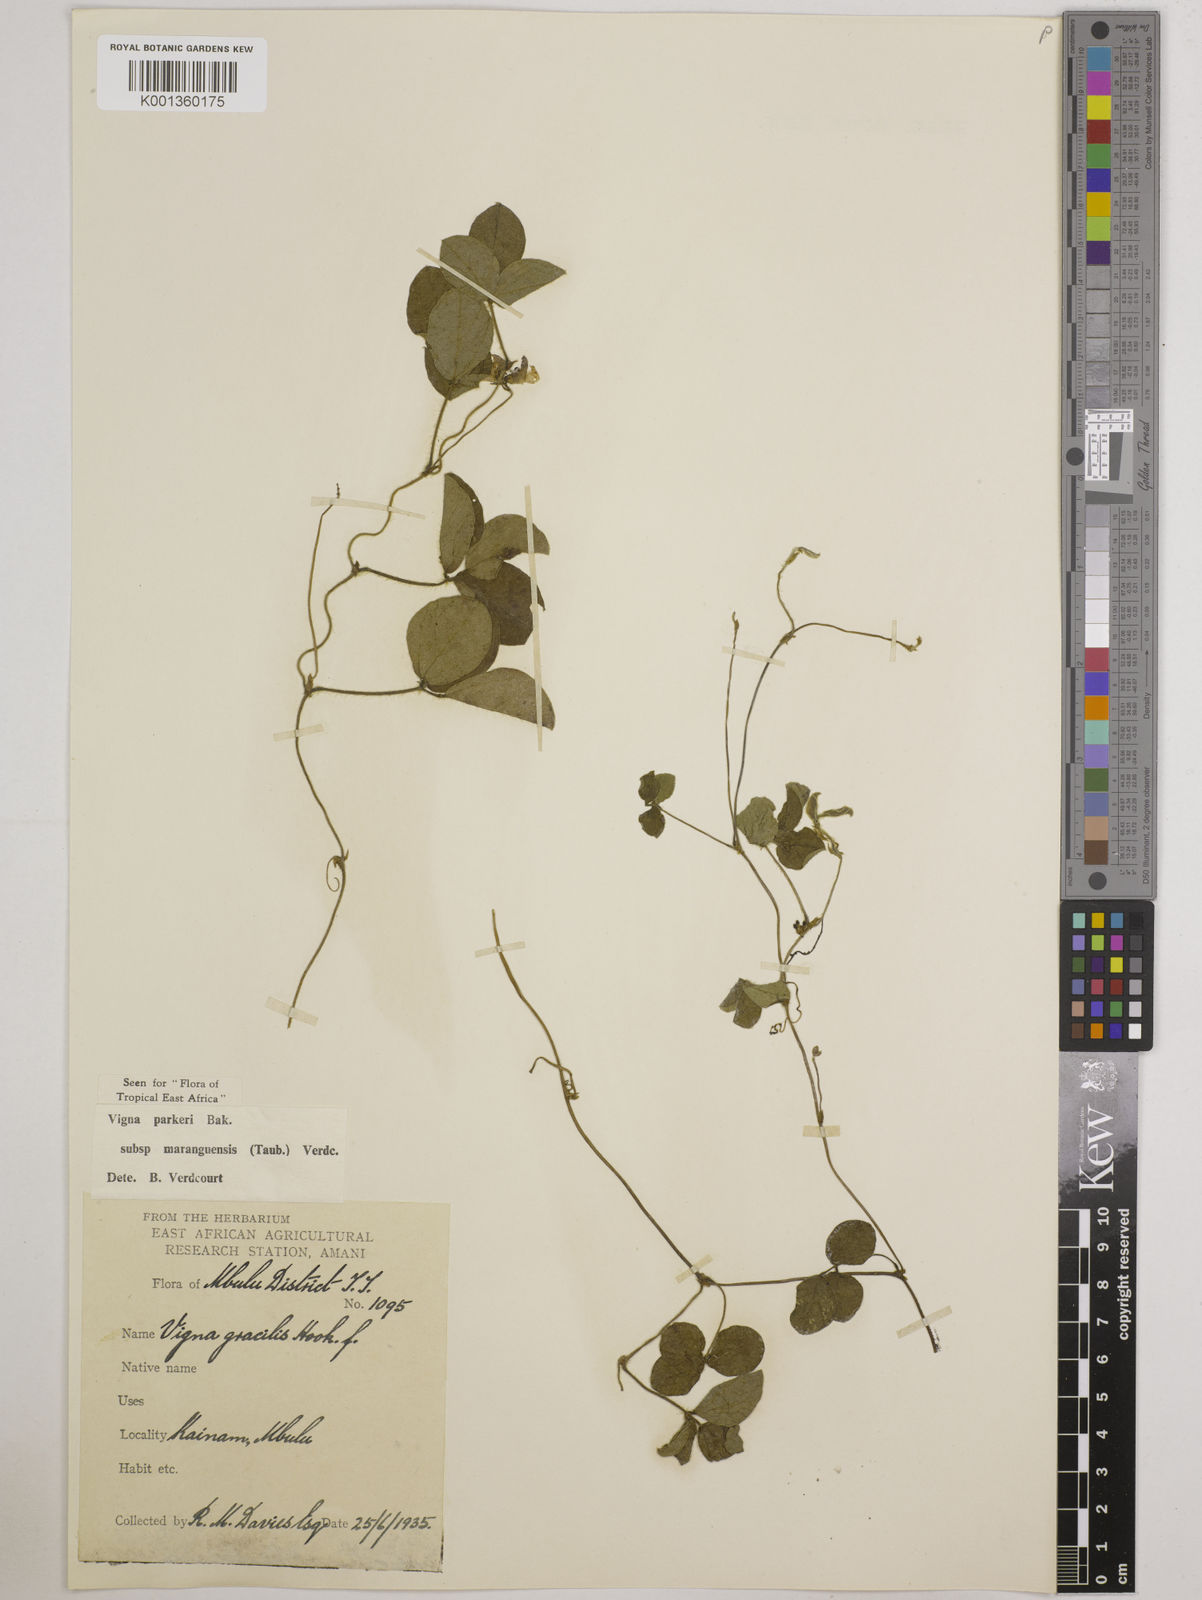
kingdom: Plantae
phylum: Tracheophyta
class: Magnoliopsida
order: Fabales
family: Fabaceae
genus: Vigna
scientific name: Vigna
